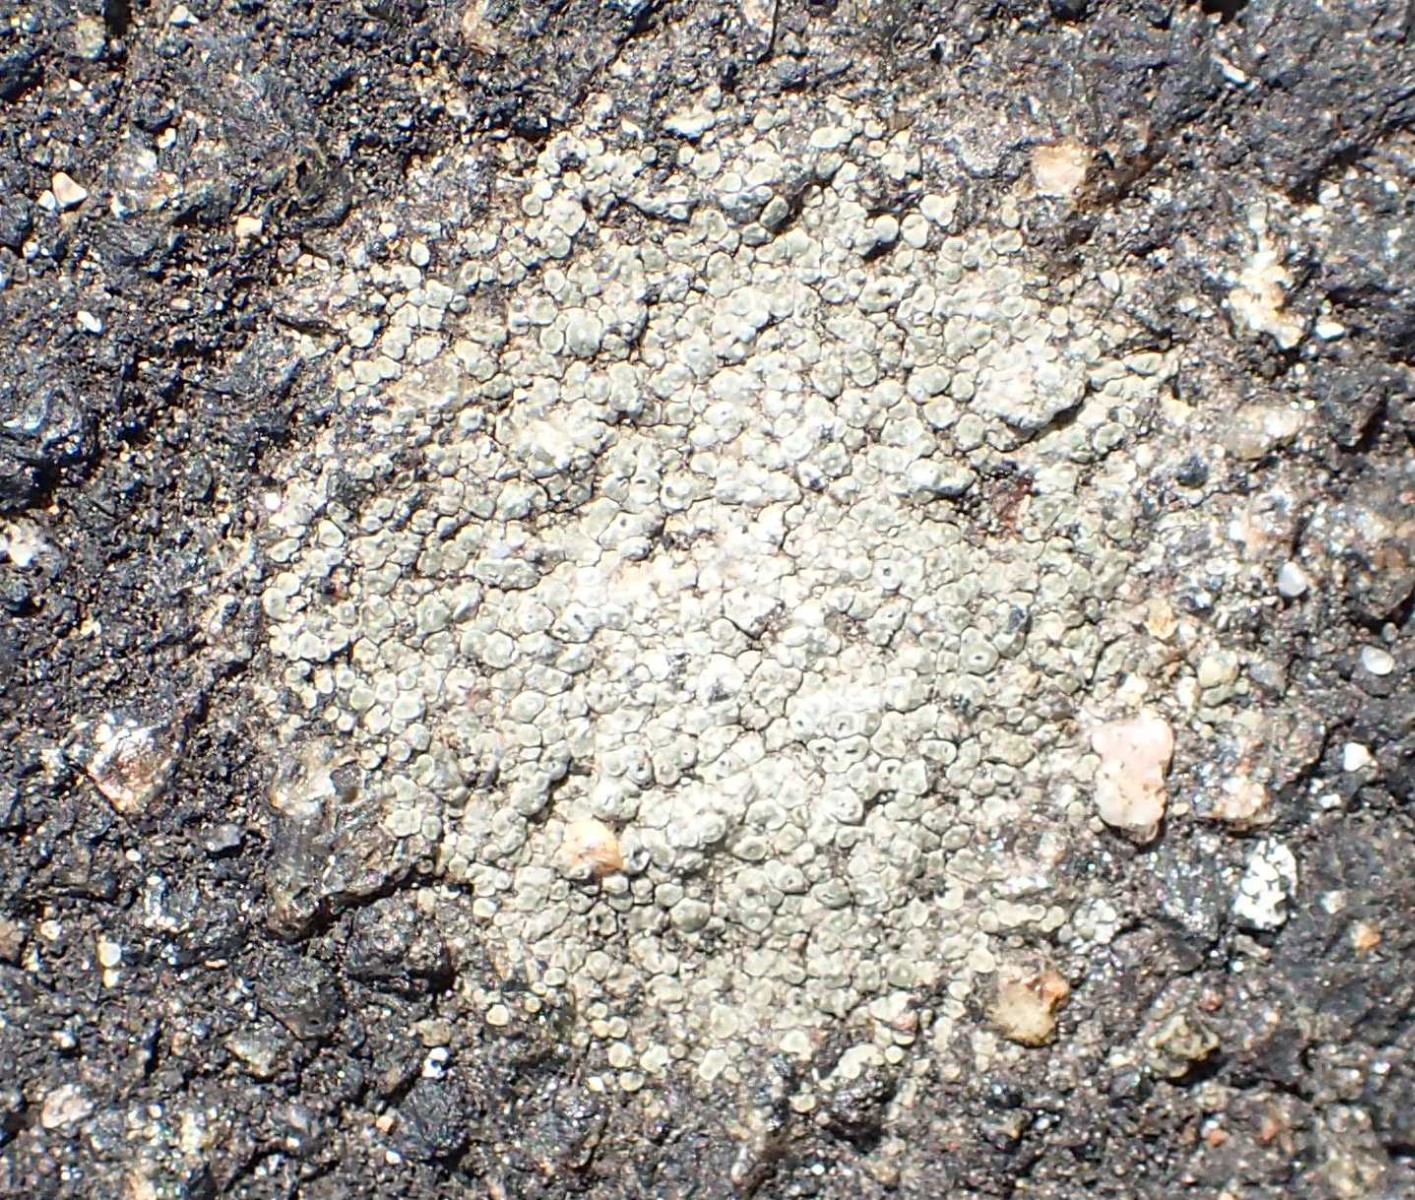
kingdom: Fungi
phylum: Ascomycota
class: Lecanoromycetes
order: Pertusariales
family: Megasporaceae
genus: Circinaria
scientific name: Circinaria contorta
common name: indviklet hulskivelav
